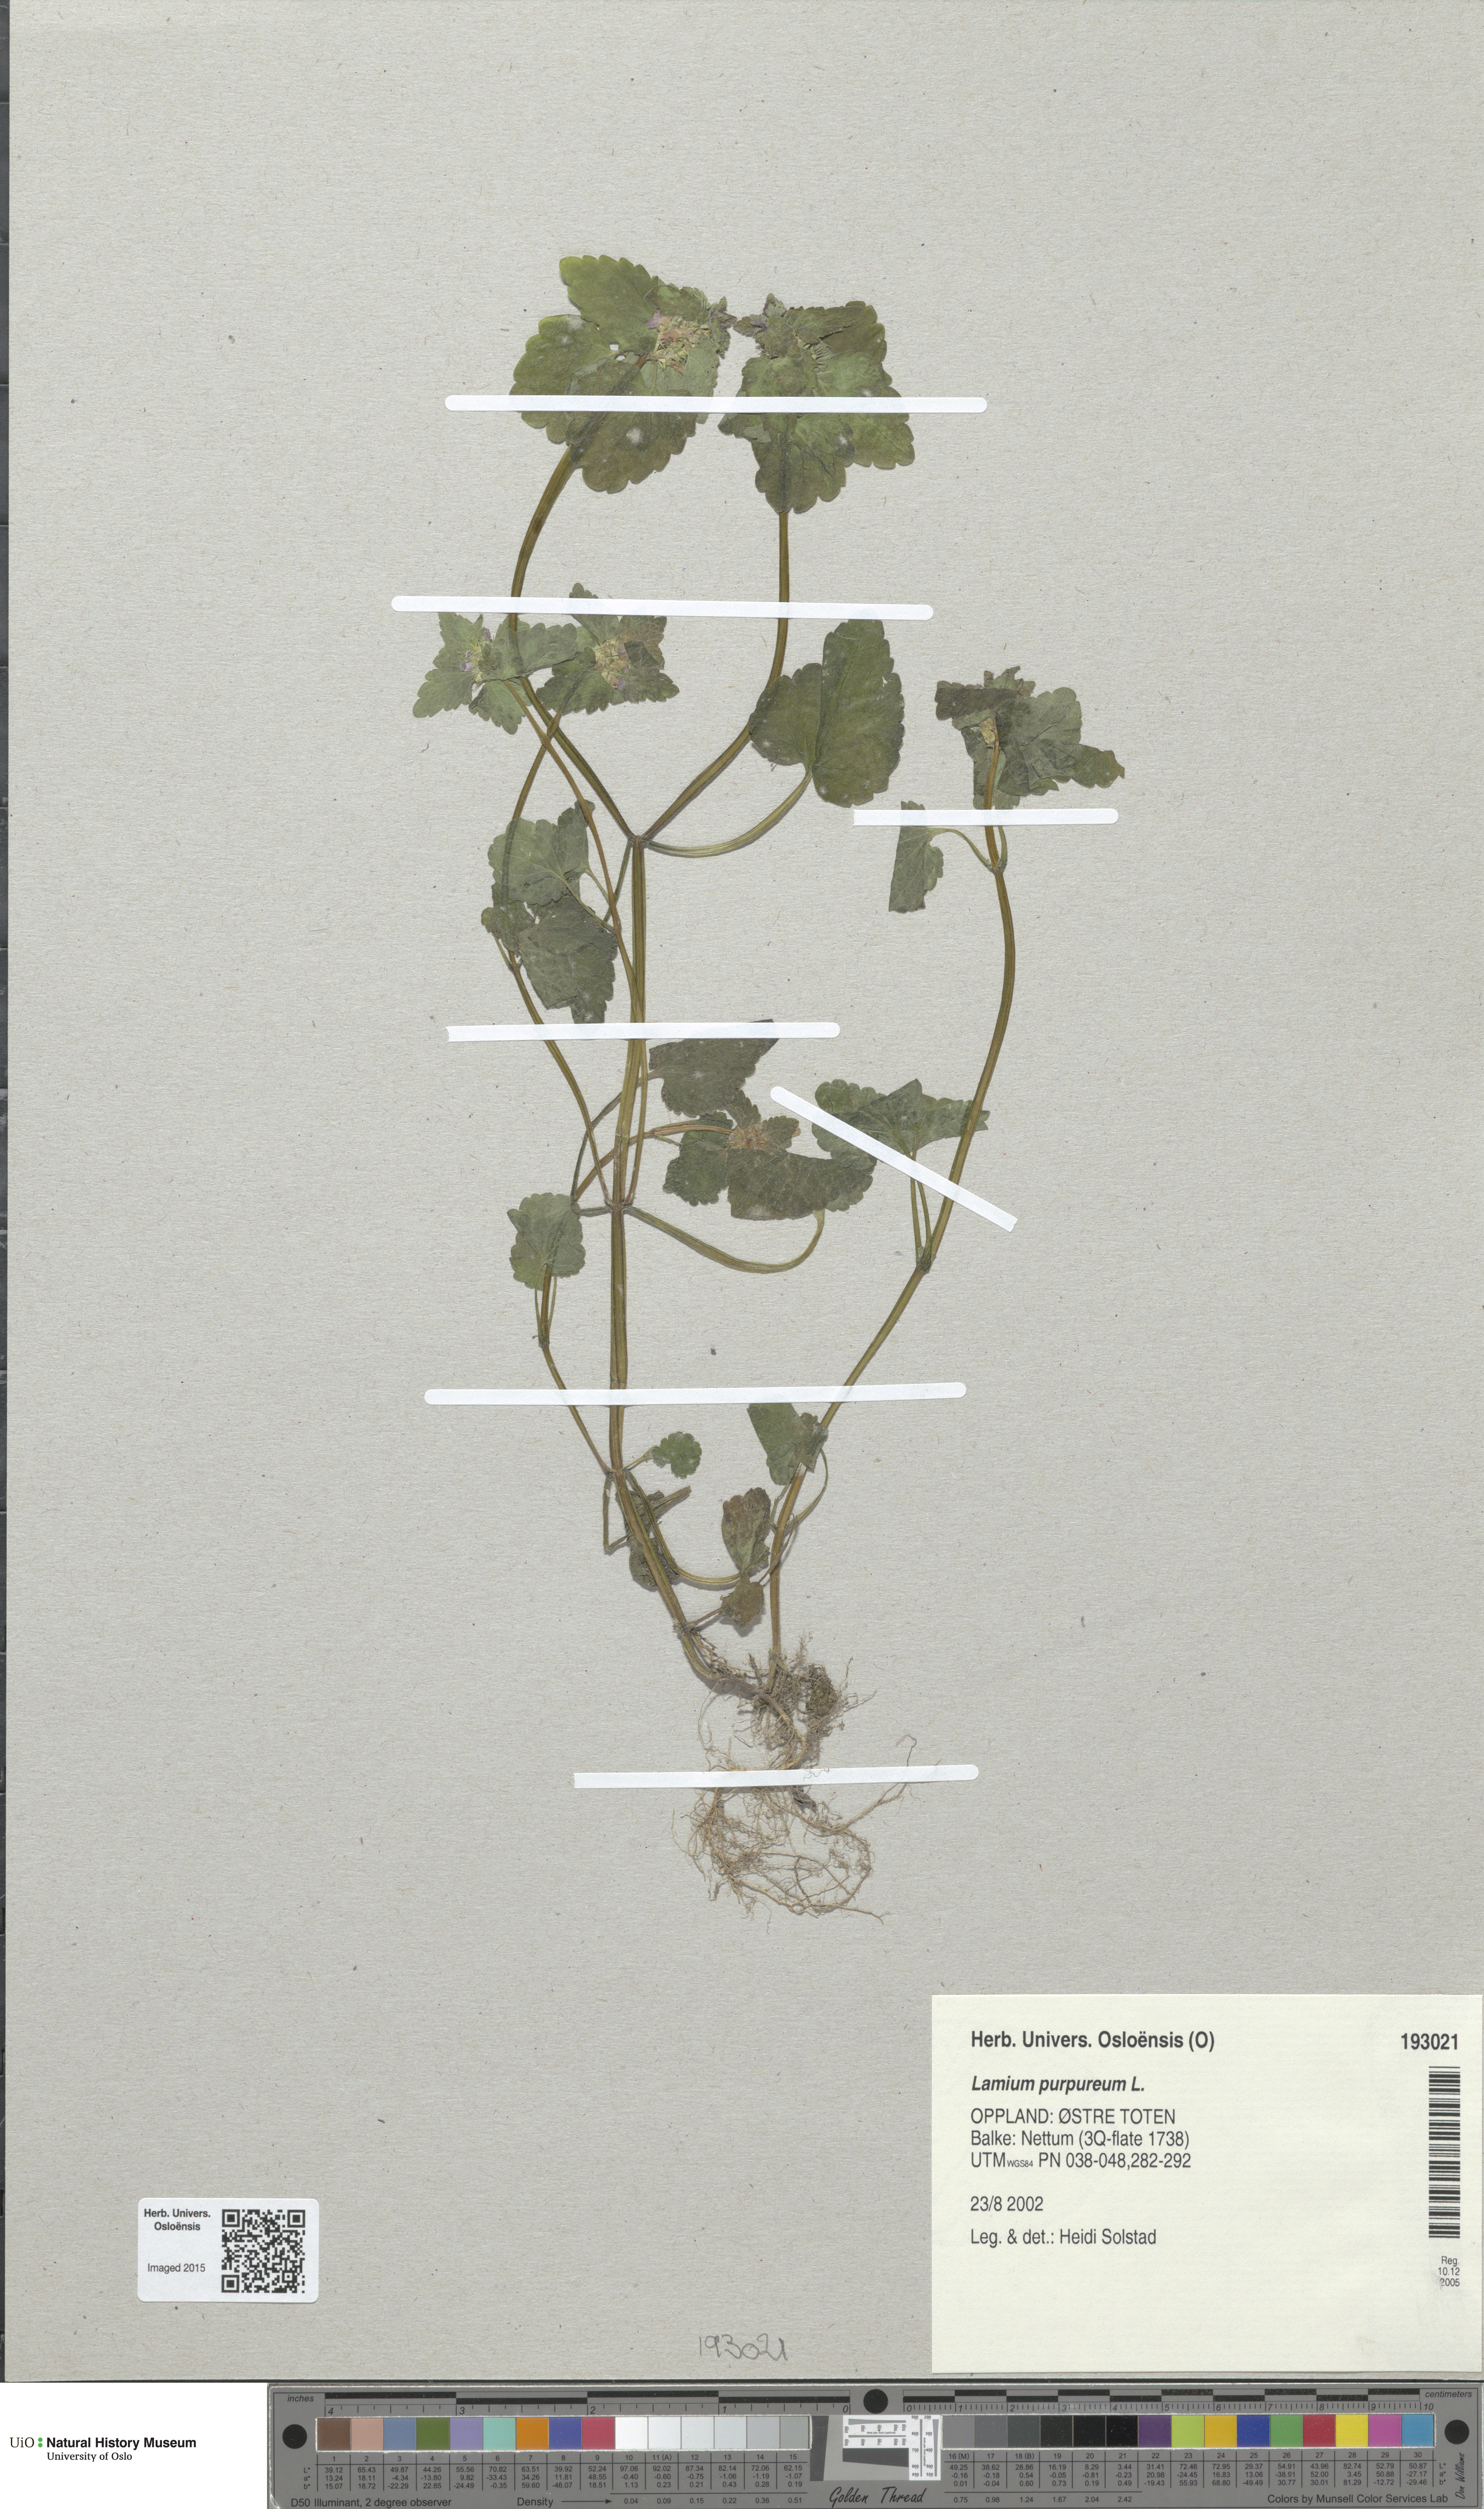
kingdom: Plantae
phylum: Tracheophyta
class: Magnoliopsida
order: Lamiales
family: Lamiaceae
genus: Lamium
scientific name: Lamium purpureum
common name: Red dead-nettle
